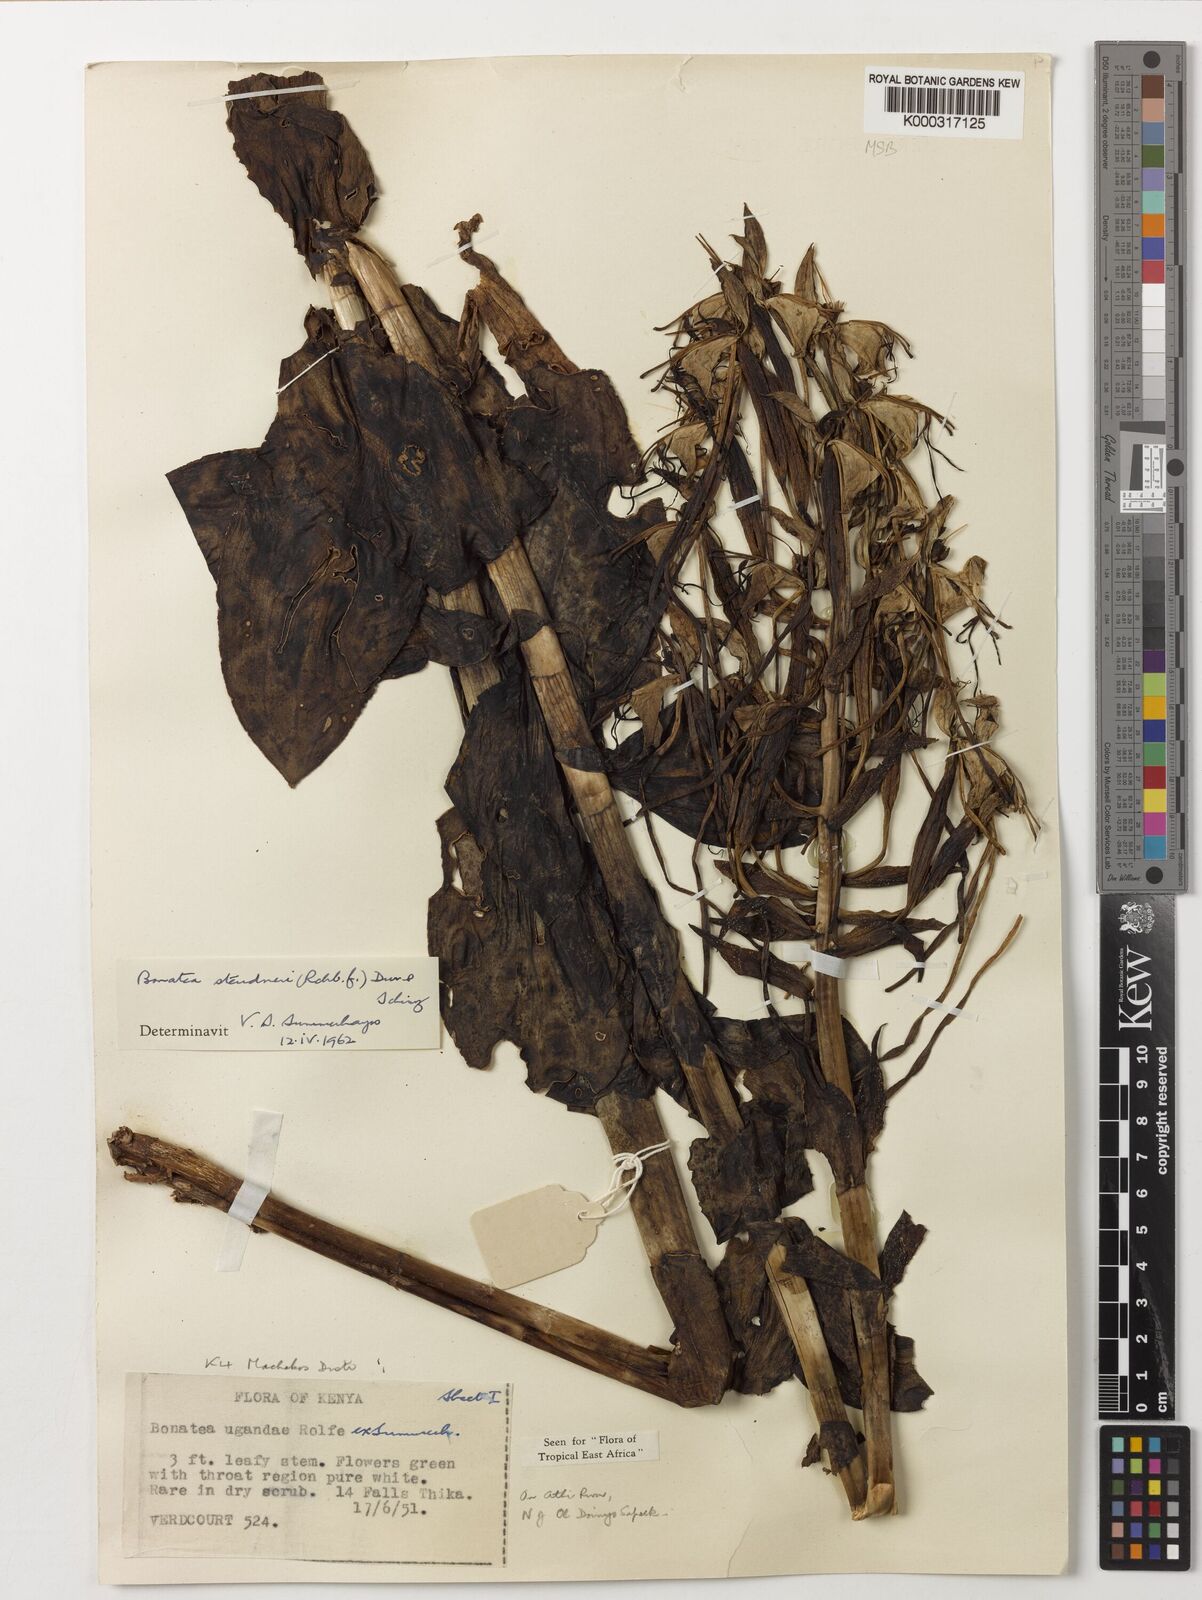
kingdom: Plantae
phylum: Tracheophyta
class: Liliopsida
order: Asparagales
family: Orchidaceae
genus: Bonatea
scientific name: Bonatea steudneri
